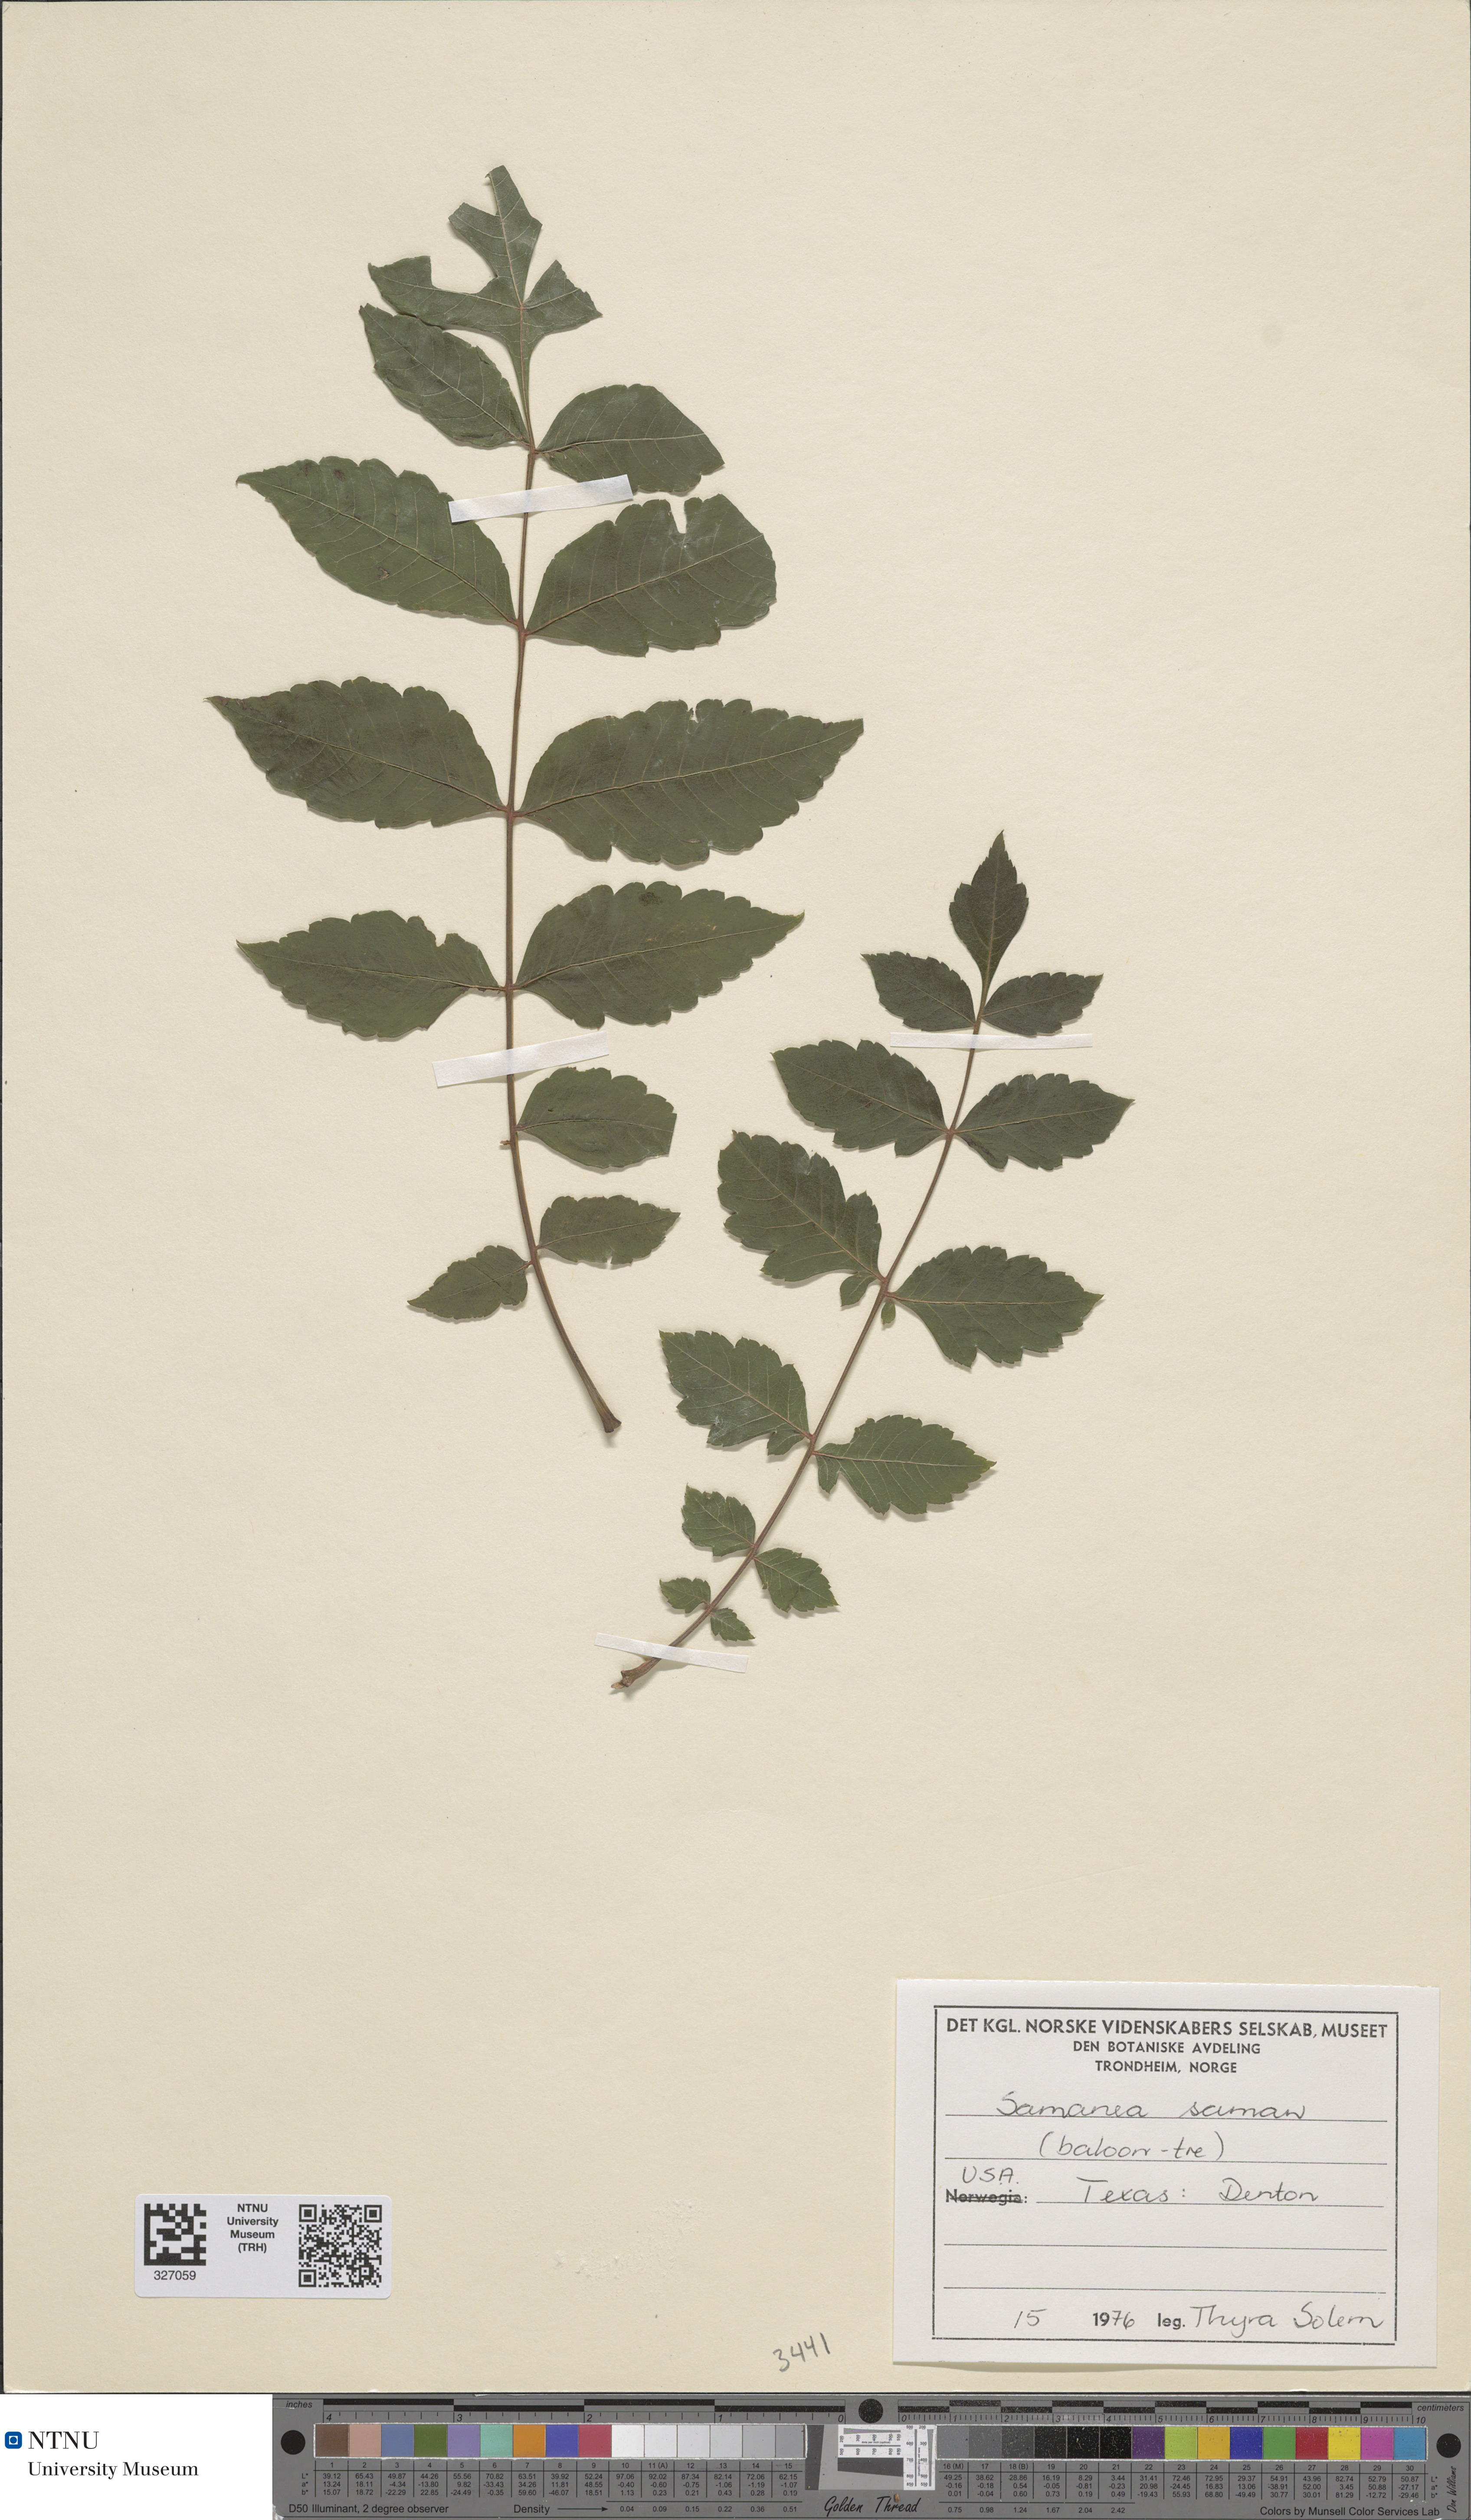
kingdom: Plantae
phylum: Tracheophyta
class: Magnoliopsida
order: Fabales
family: Fabaceae
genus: Samanea
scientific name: Samanea saman
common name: Raintree
